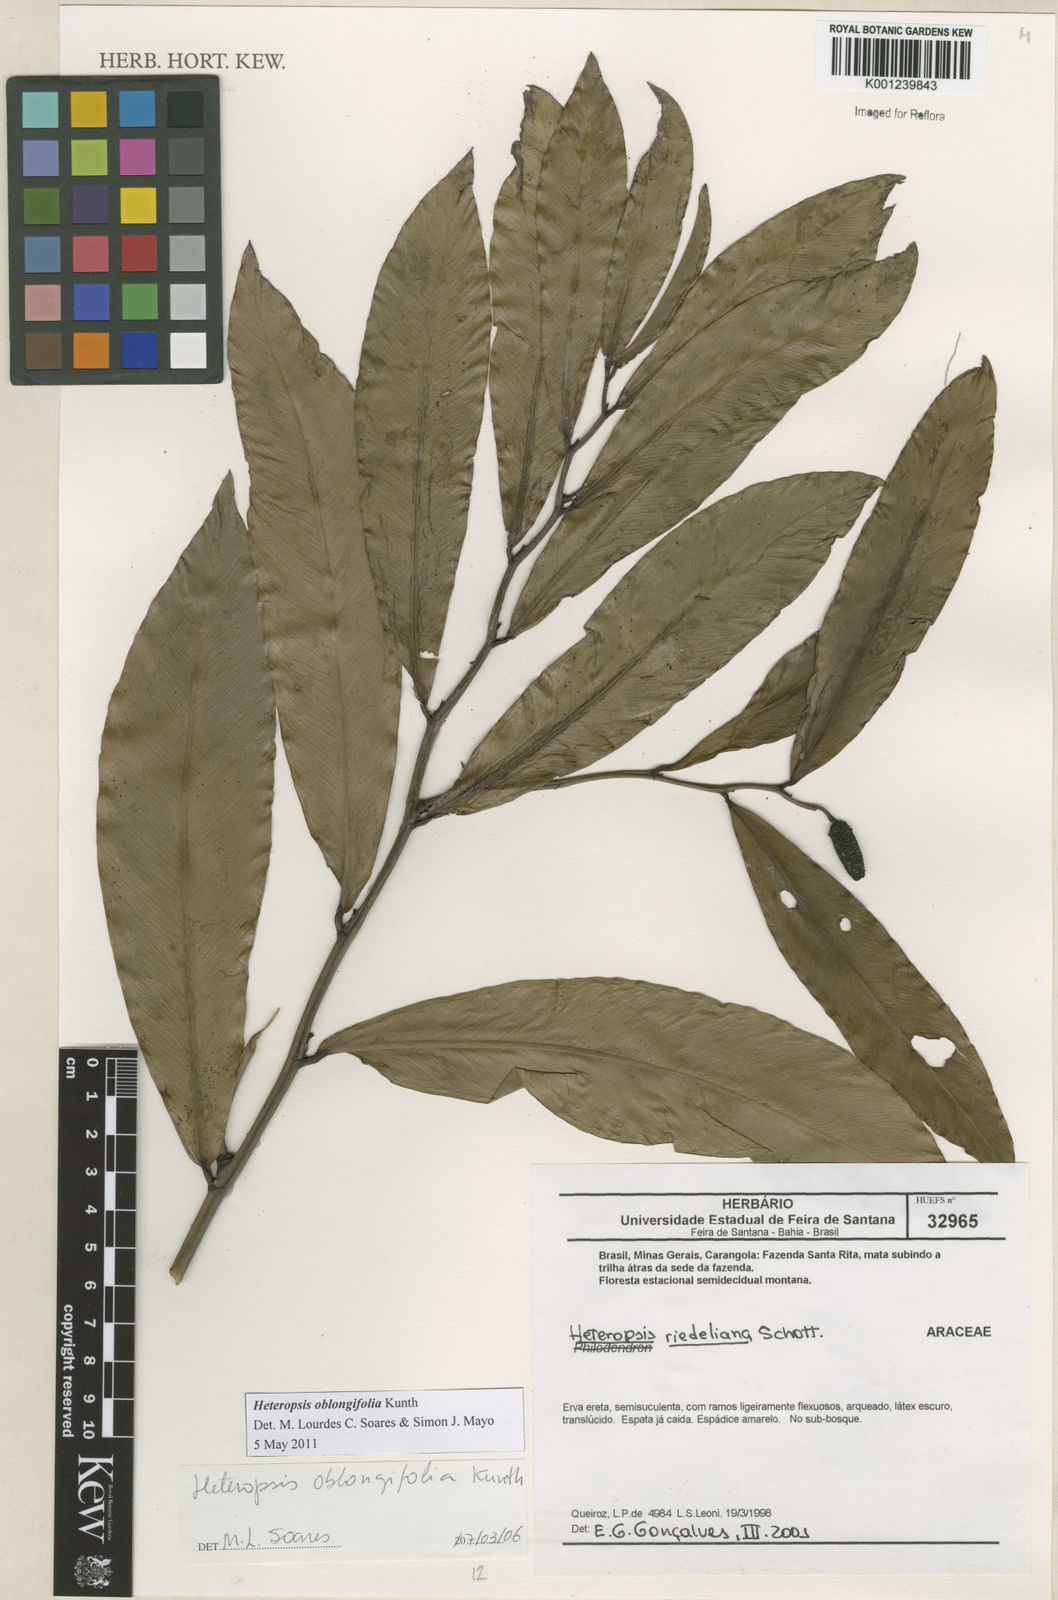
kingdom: Plantae
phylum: Tracheophyta
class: Liliopsida
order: Alismatales
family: Araceae
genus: Heteropsis
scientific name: Heteropsis oblongifolia
